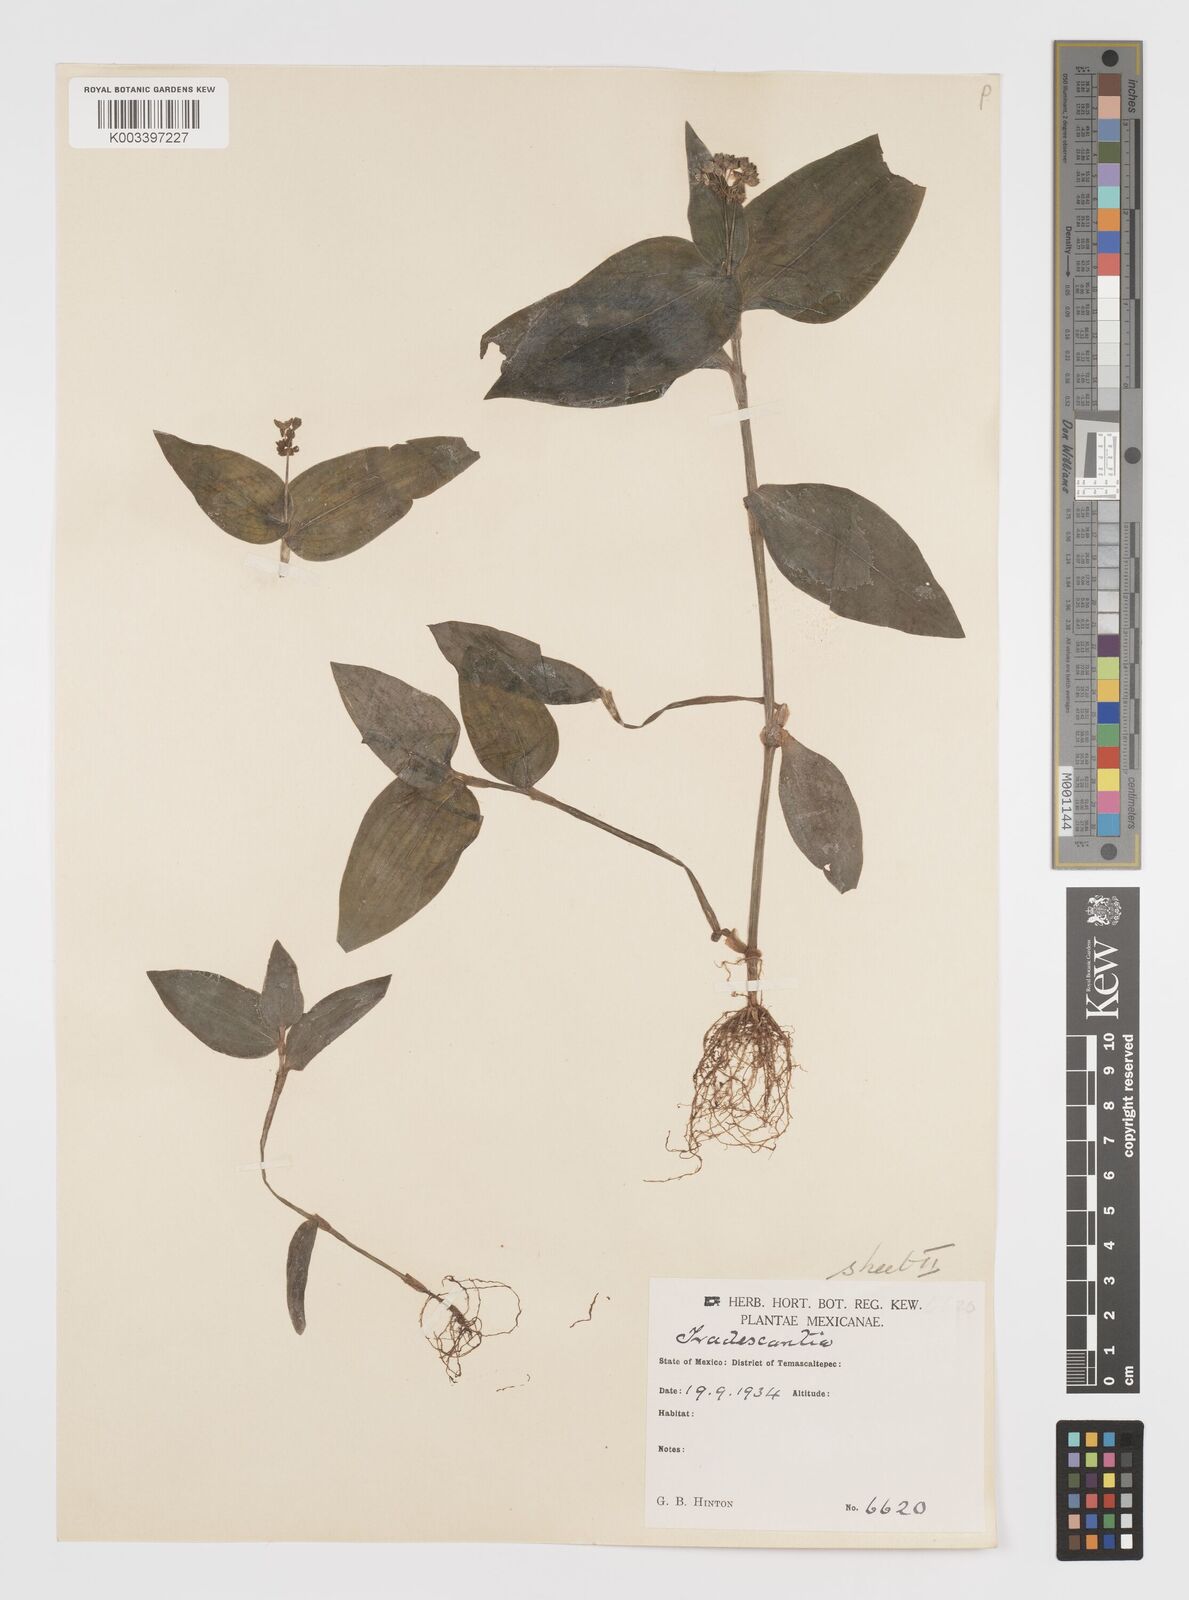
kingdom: Plantae
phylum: Tracheophyta
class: Liliopsida
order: Commelinales
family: Commelinaceae
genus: Callisia
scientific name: Callisia palmeri
